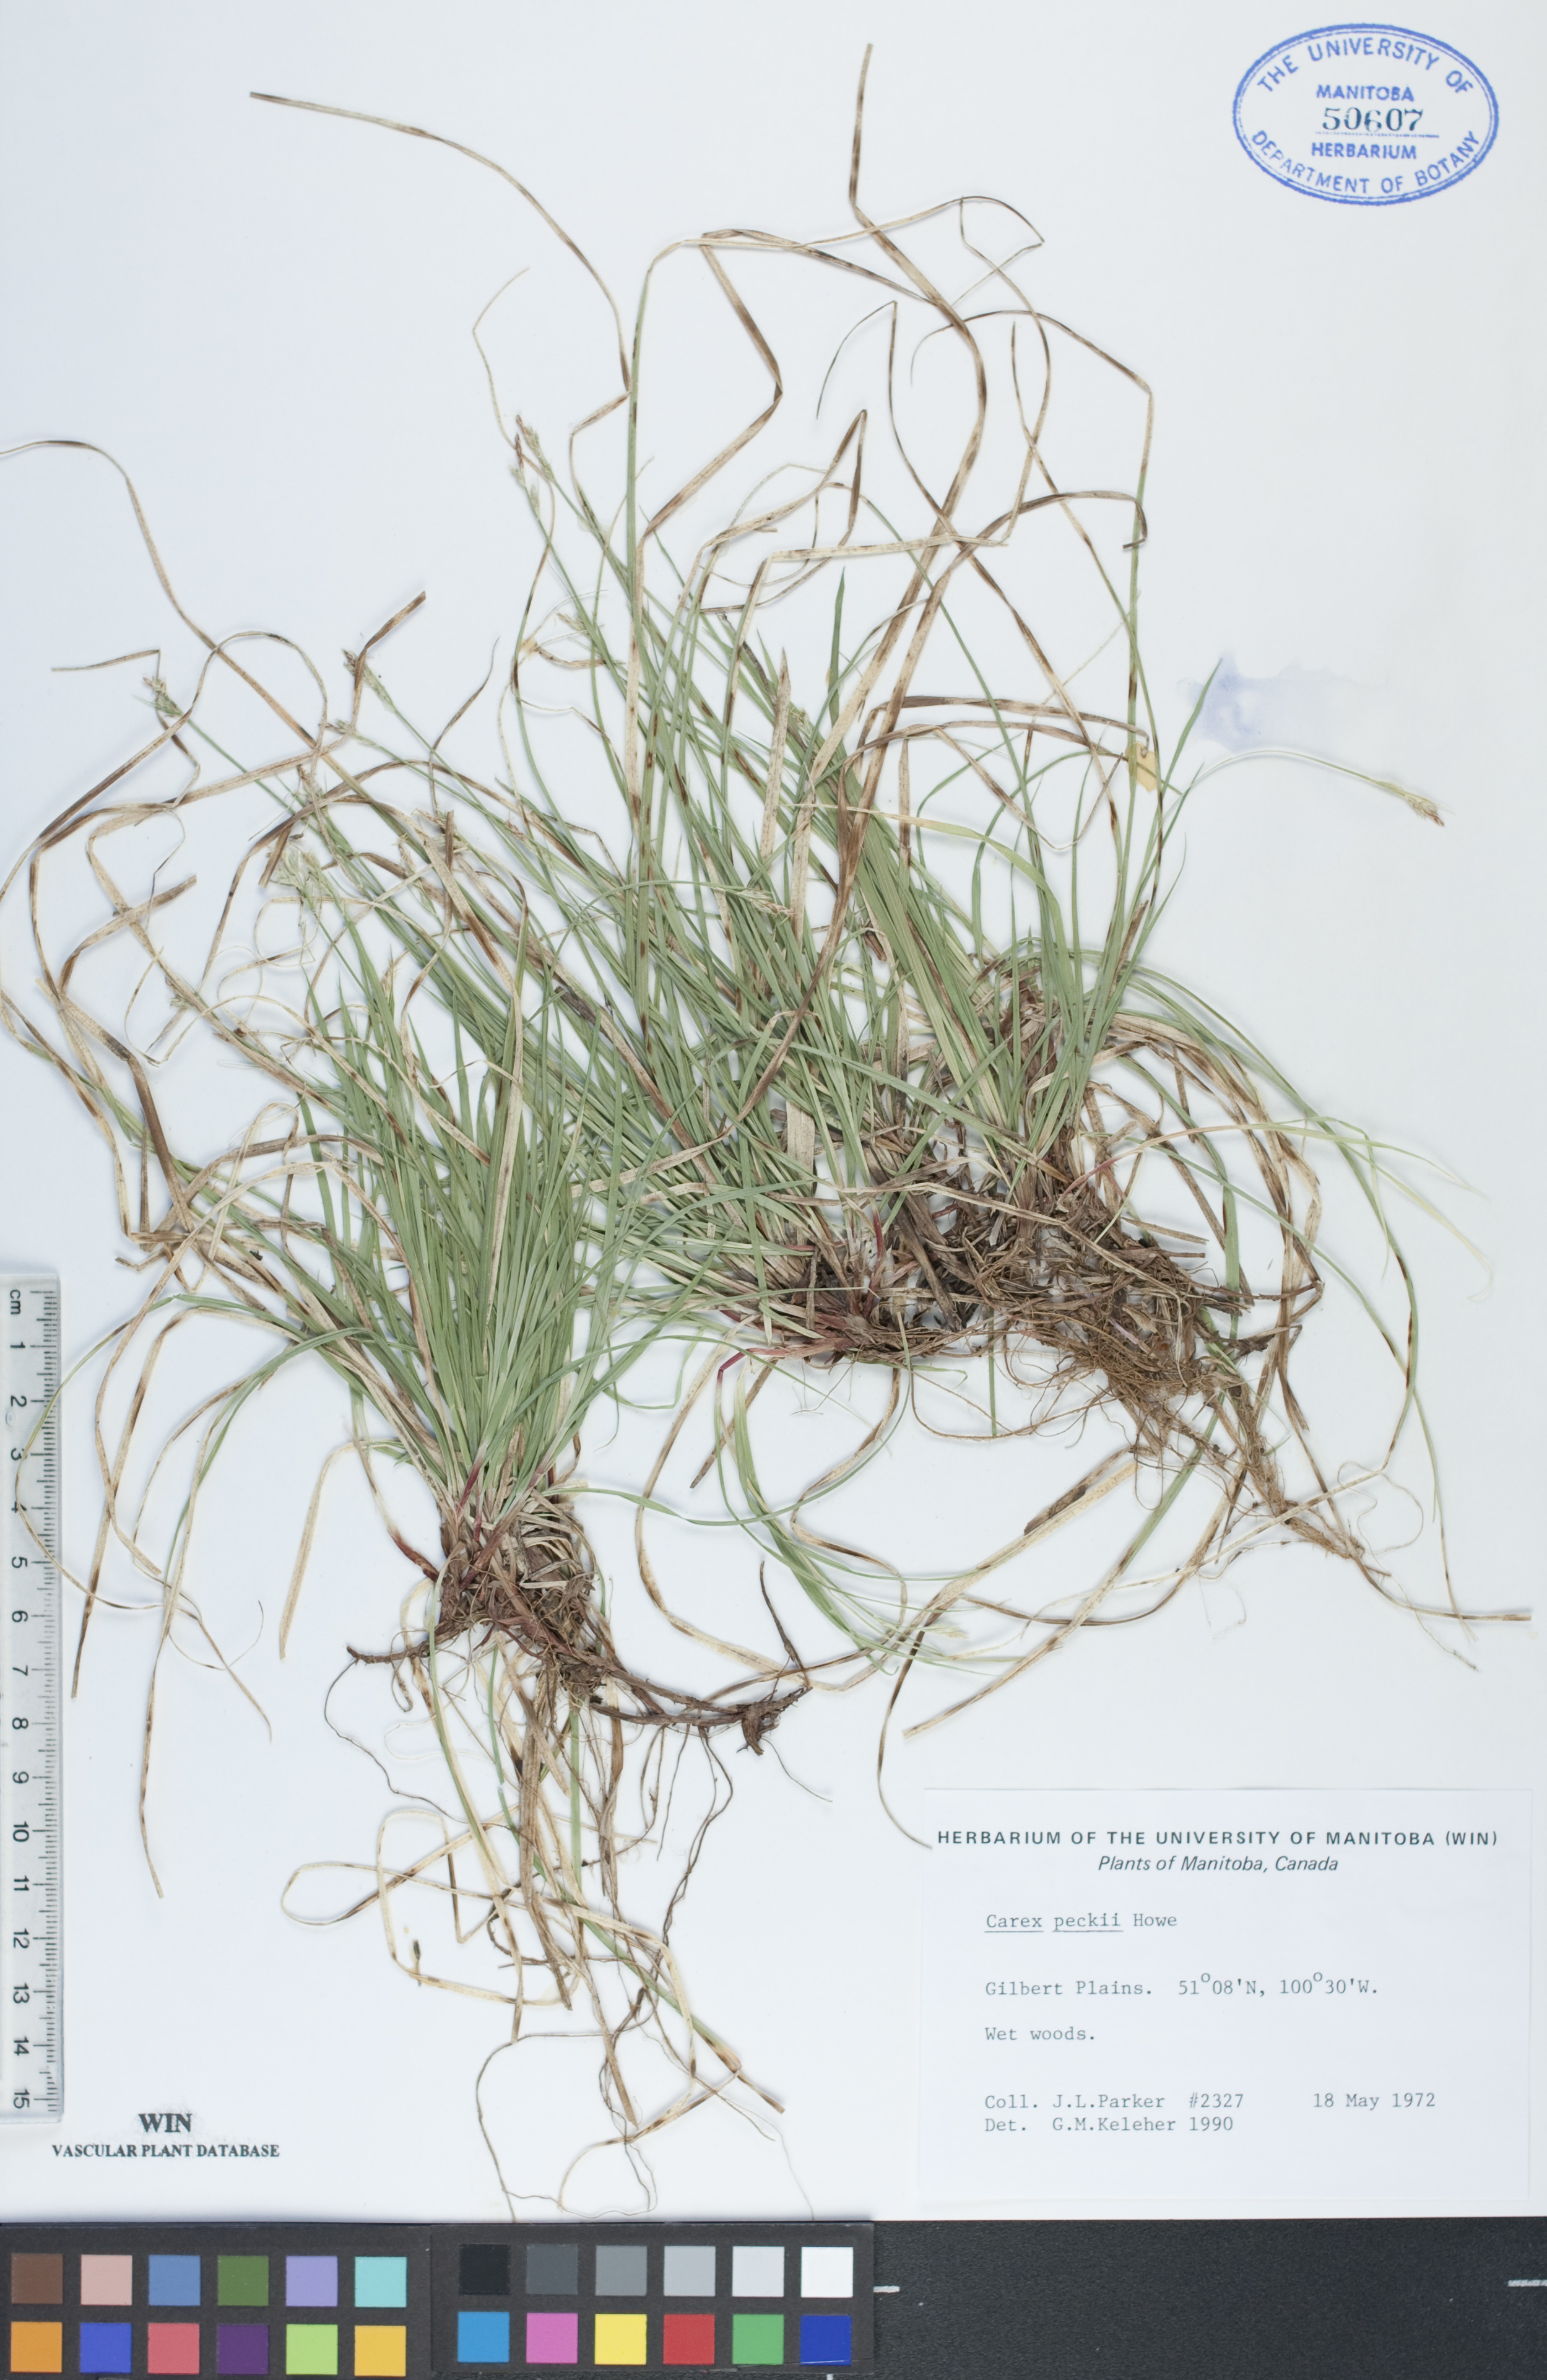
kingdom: Plantae
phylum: Tracheophyta
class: Liliopsida
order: Poales
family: Cyperaceae
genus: Carex
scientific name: Carex peckii
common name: Peck's oak sedge
